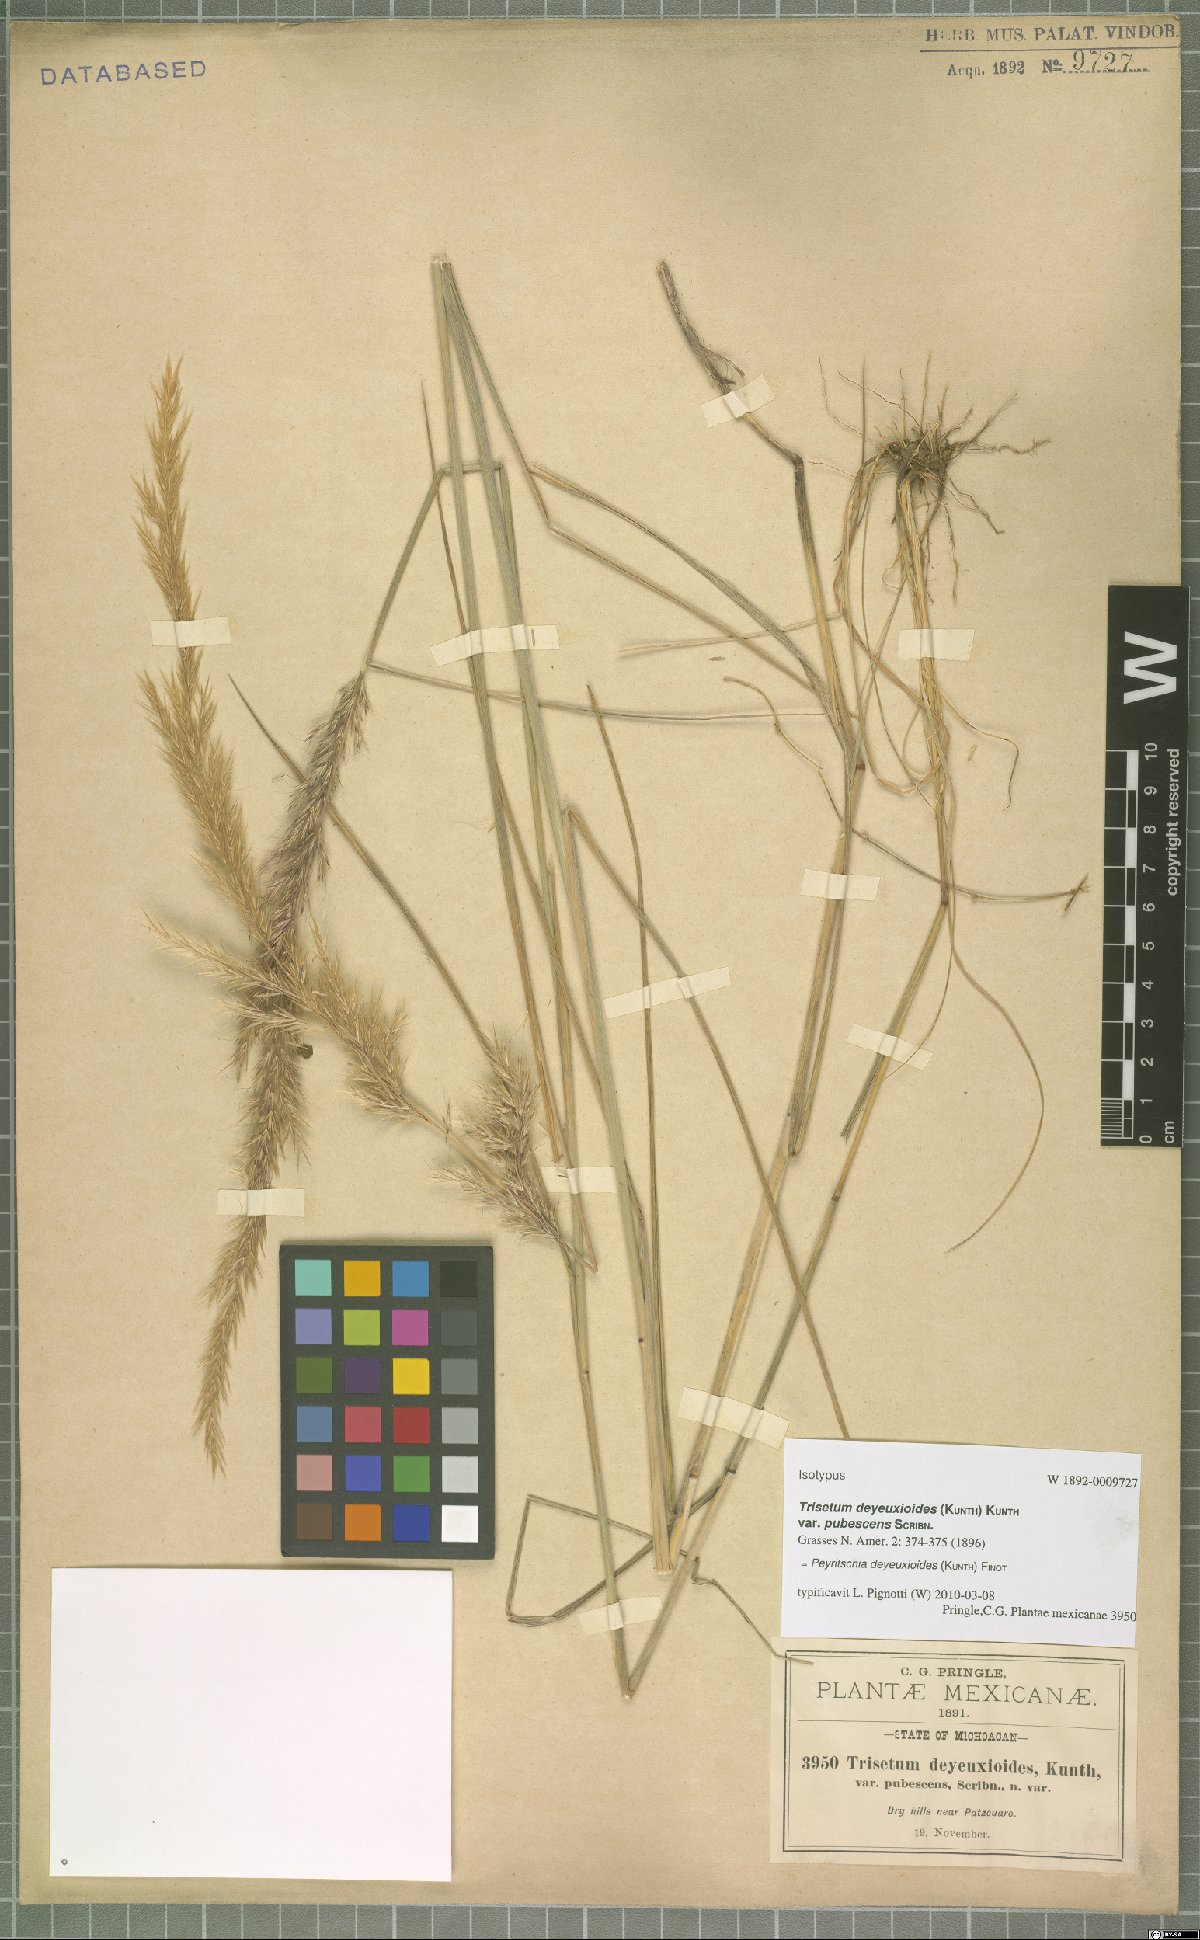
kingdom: Plantae
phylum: Tracheophyta
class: Liliopsida
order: Poales
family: Poaceae
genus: Peyritschia
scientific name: Peyritschia deyeuxioides
